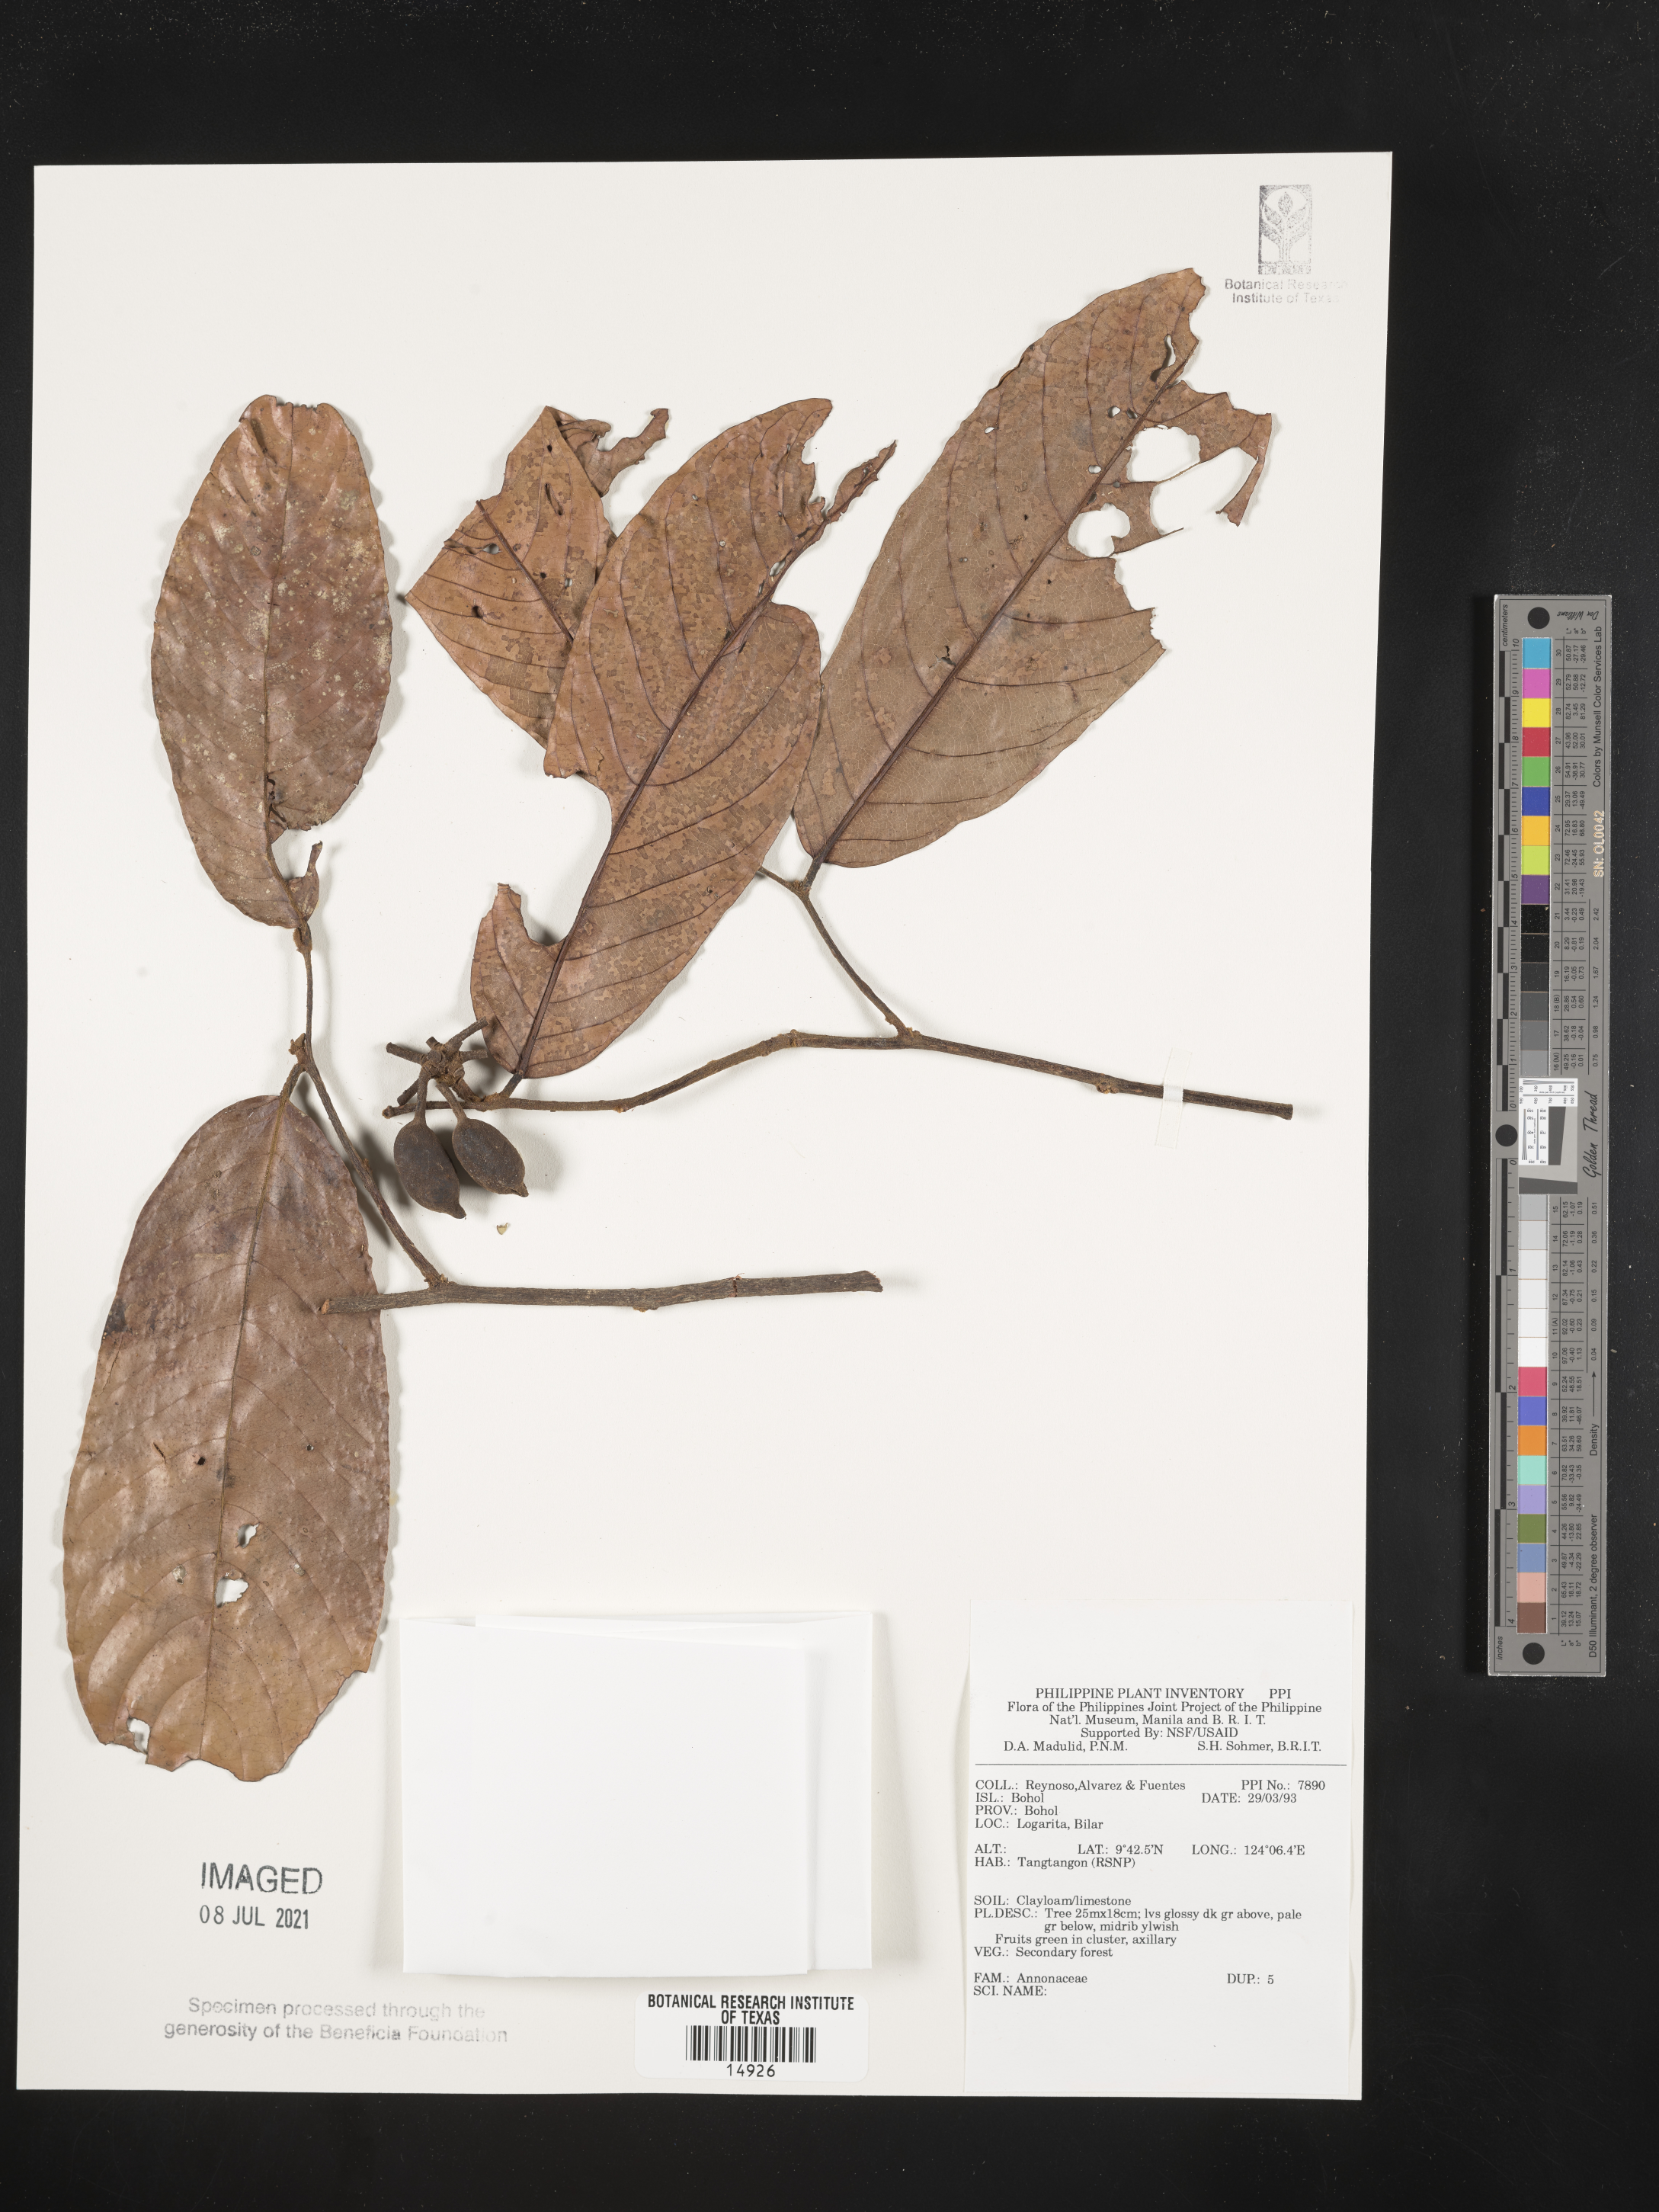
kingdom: Plantae
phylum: Tracheophyta
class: Magnoliopsida
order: Magnoliales
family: Annonaceae
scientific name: Annonaceae
